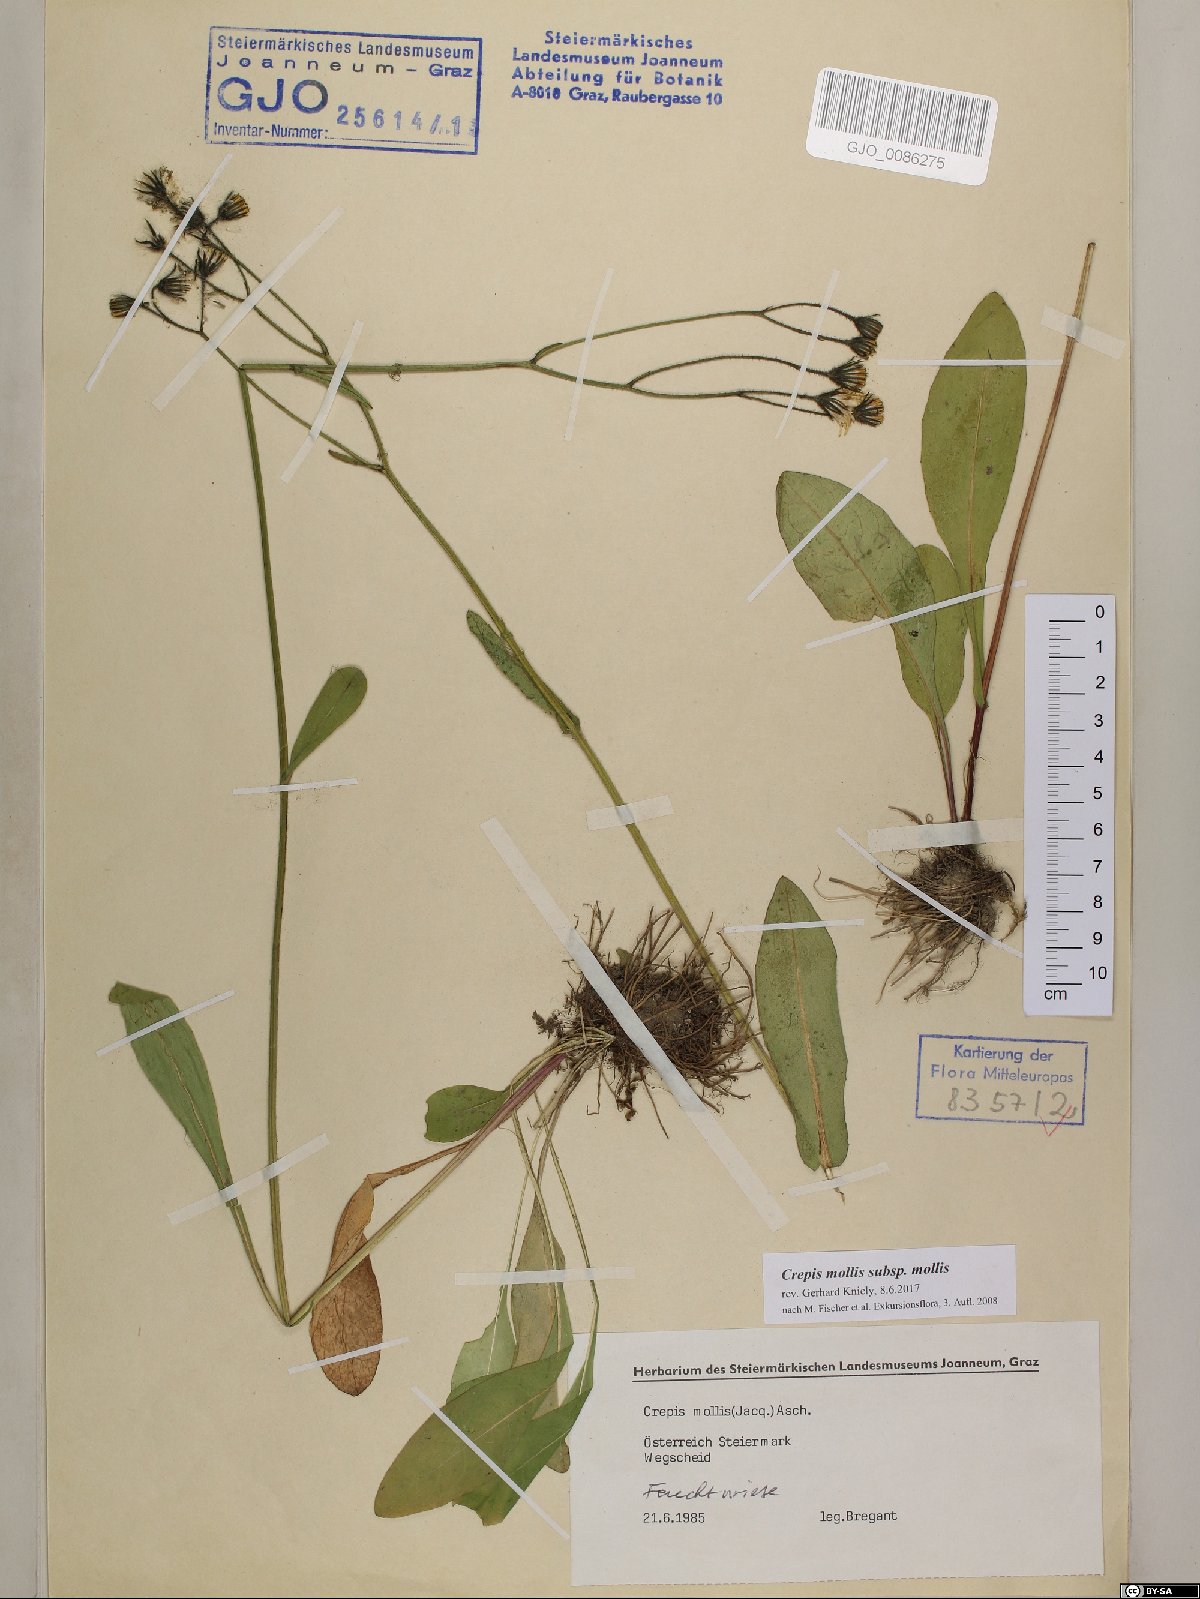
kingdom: Plantae
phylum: Tracheophyta
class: Magnoliopsida
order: Asterales
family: Asteraceae
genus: Crepis
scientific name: Crepis mollis
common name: Northern hawk's-beard
